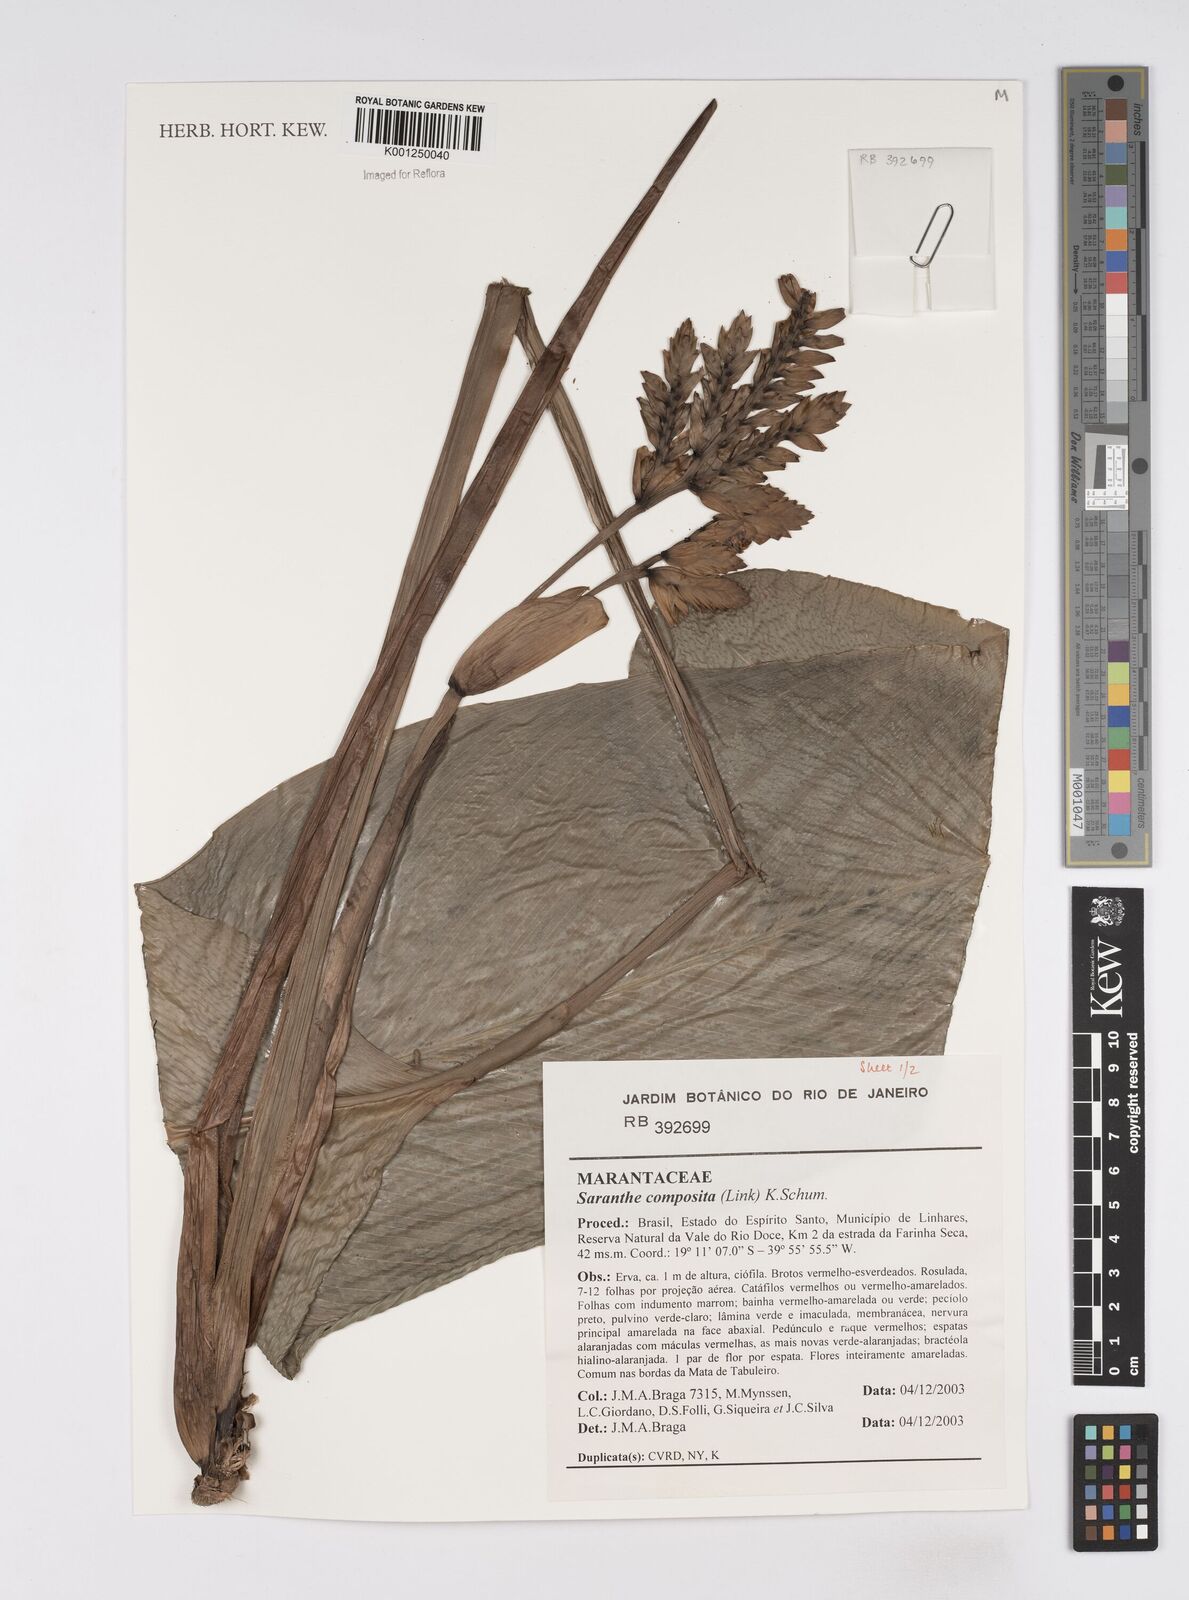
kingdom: Plantae
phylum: Tracheophyta
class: Liliopsida
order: Zingiberales
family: Marantaceae
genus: Saranthe
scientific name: Saranthe composita
